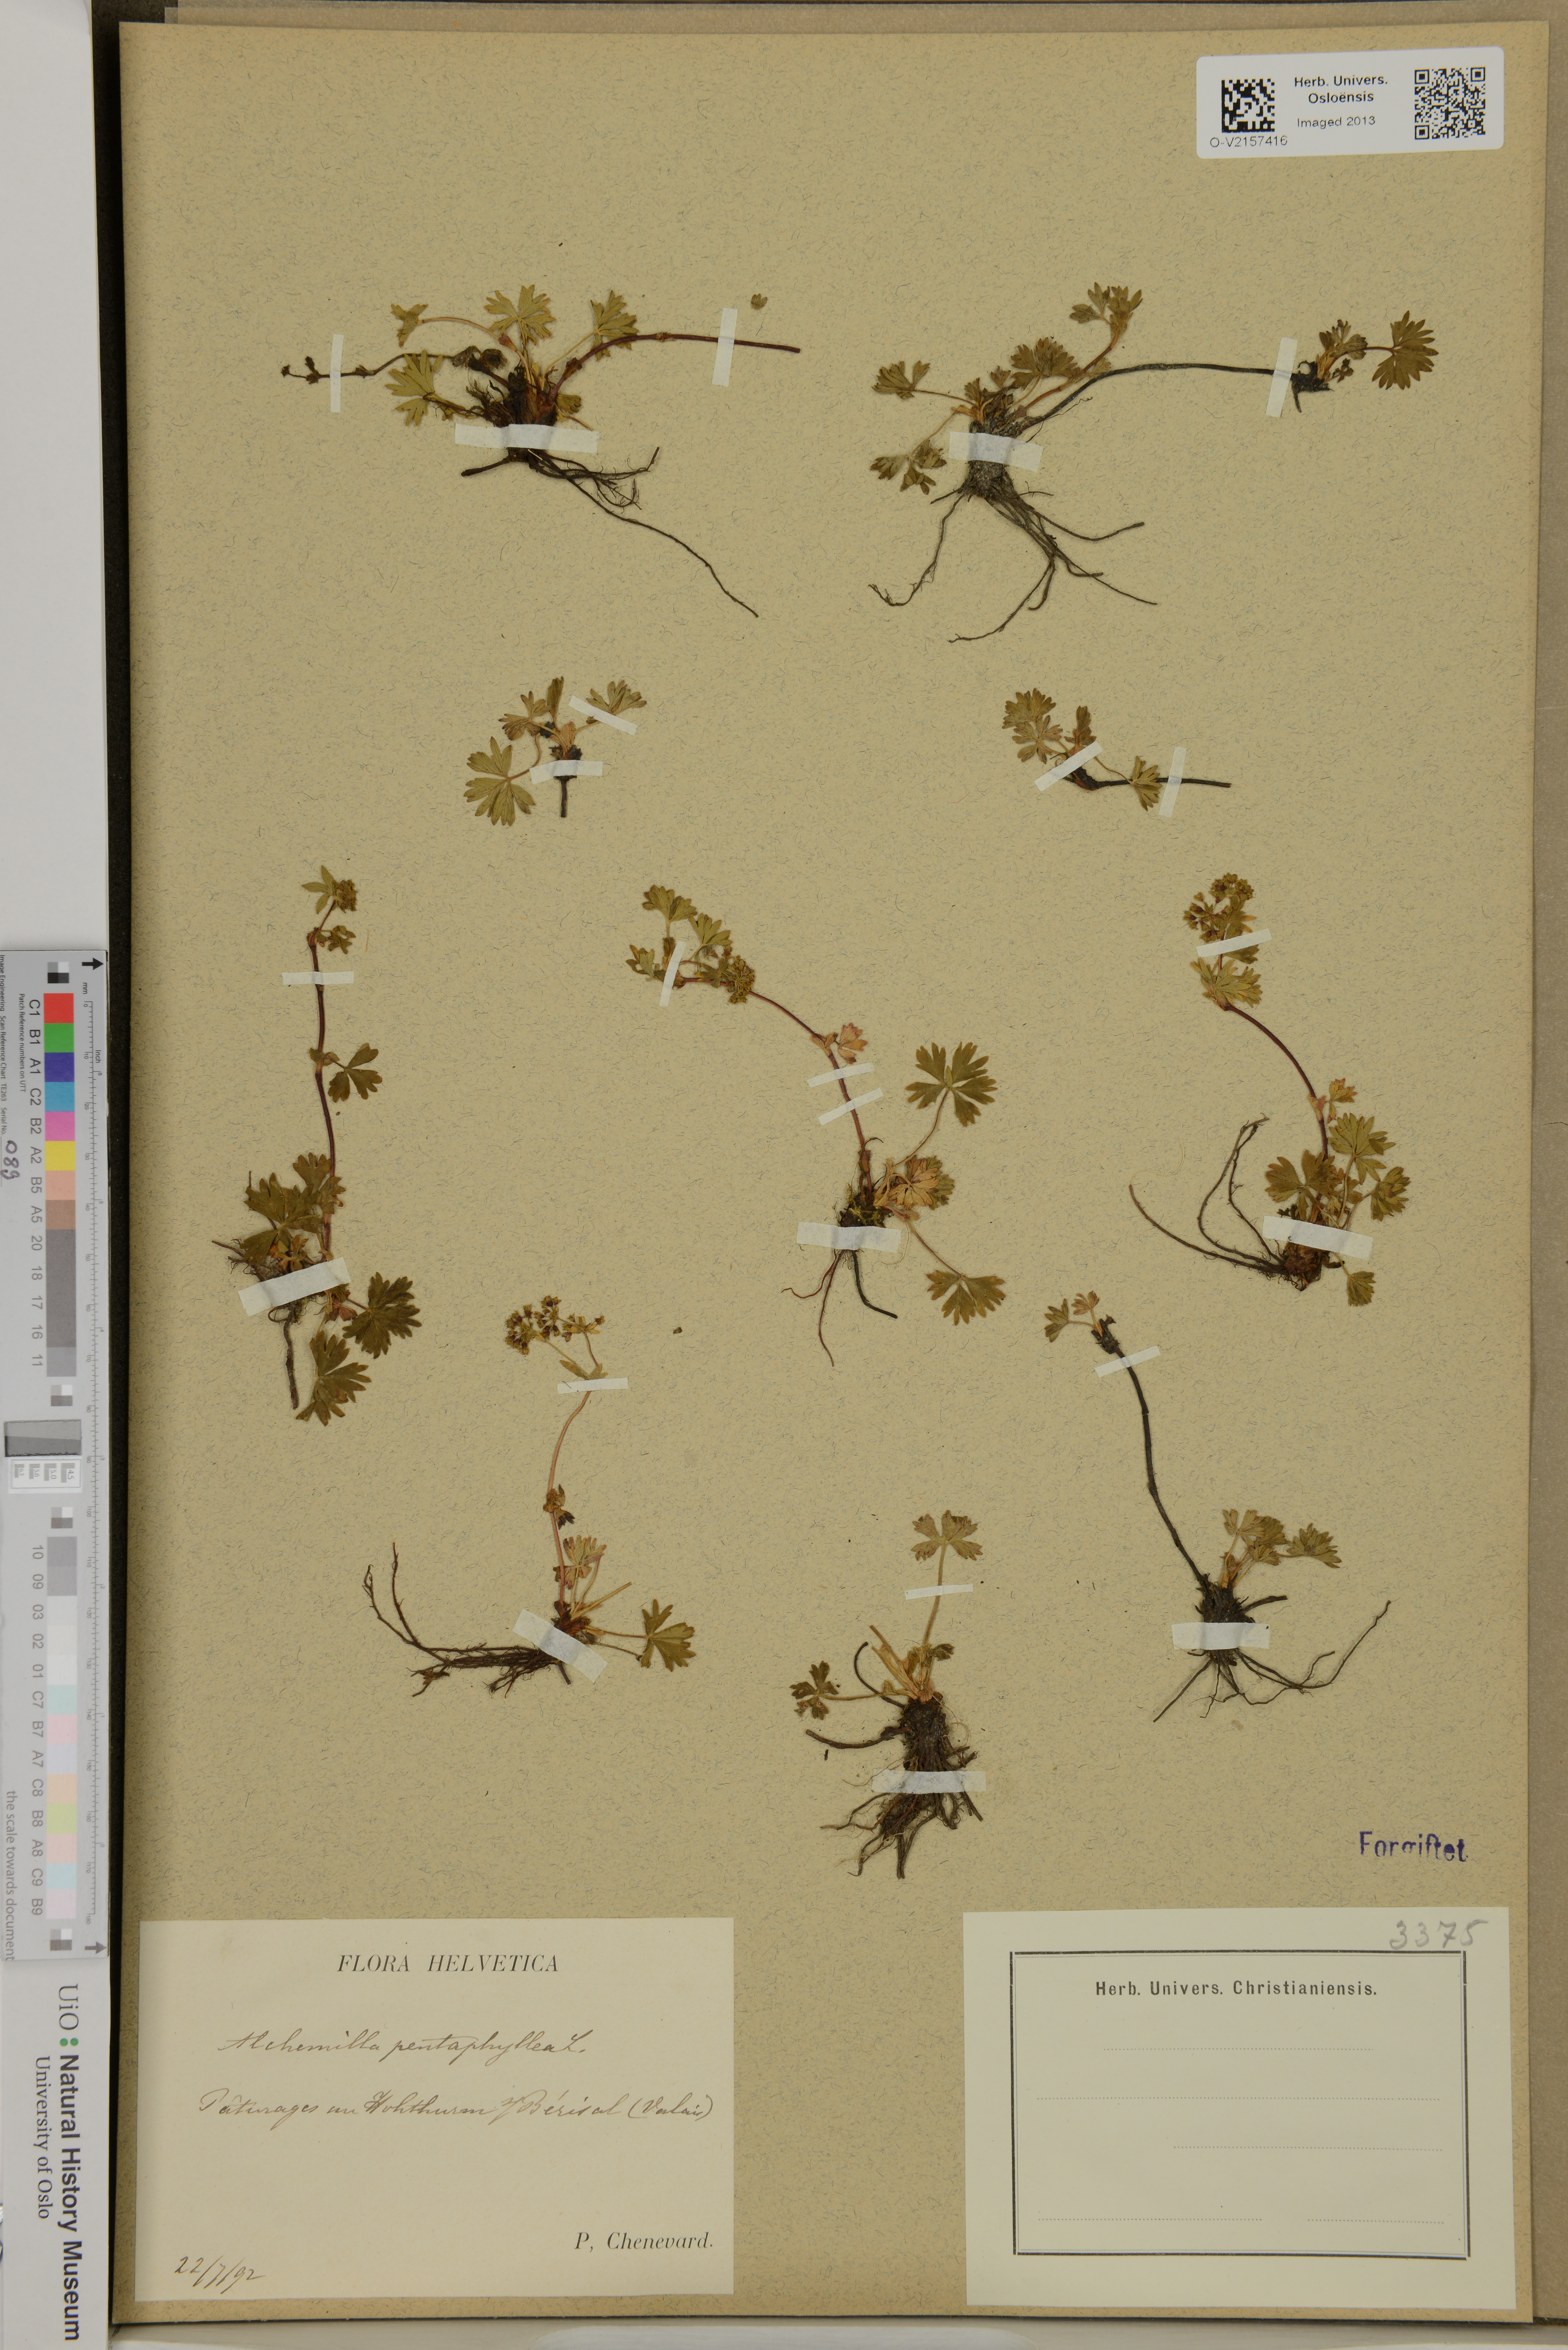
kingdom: Plantae
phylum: Tracheophyta
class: Magnoliopsida
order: Rosales
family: Rosaceae
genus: Alchemilla
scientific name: Alchemilla pentaphyllea
